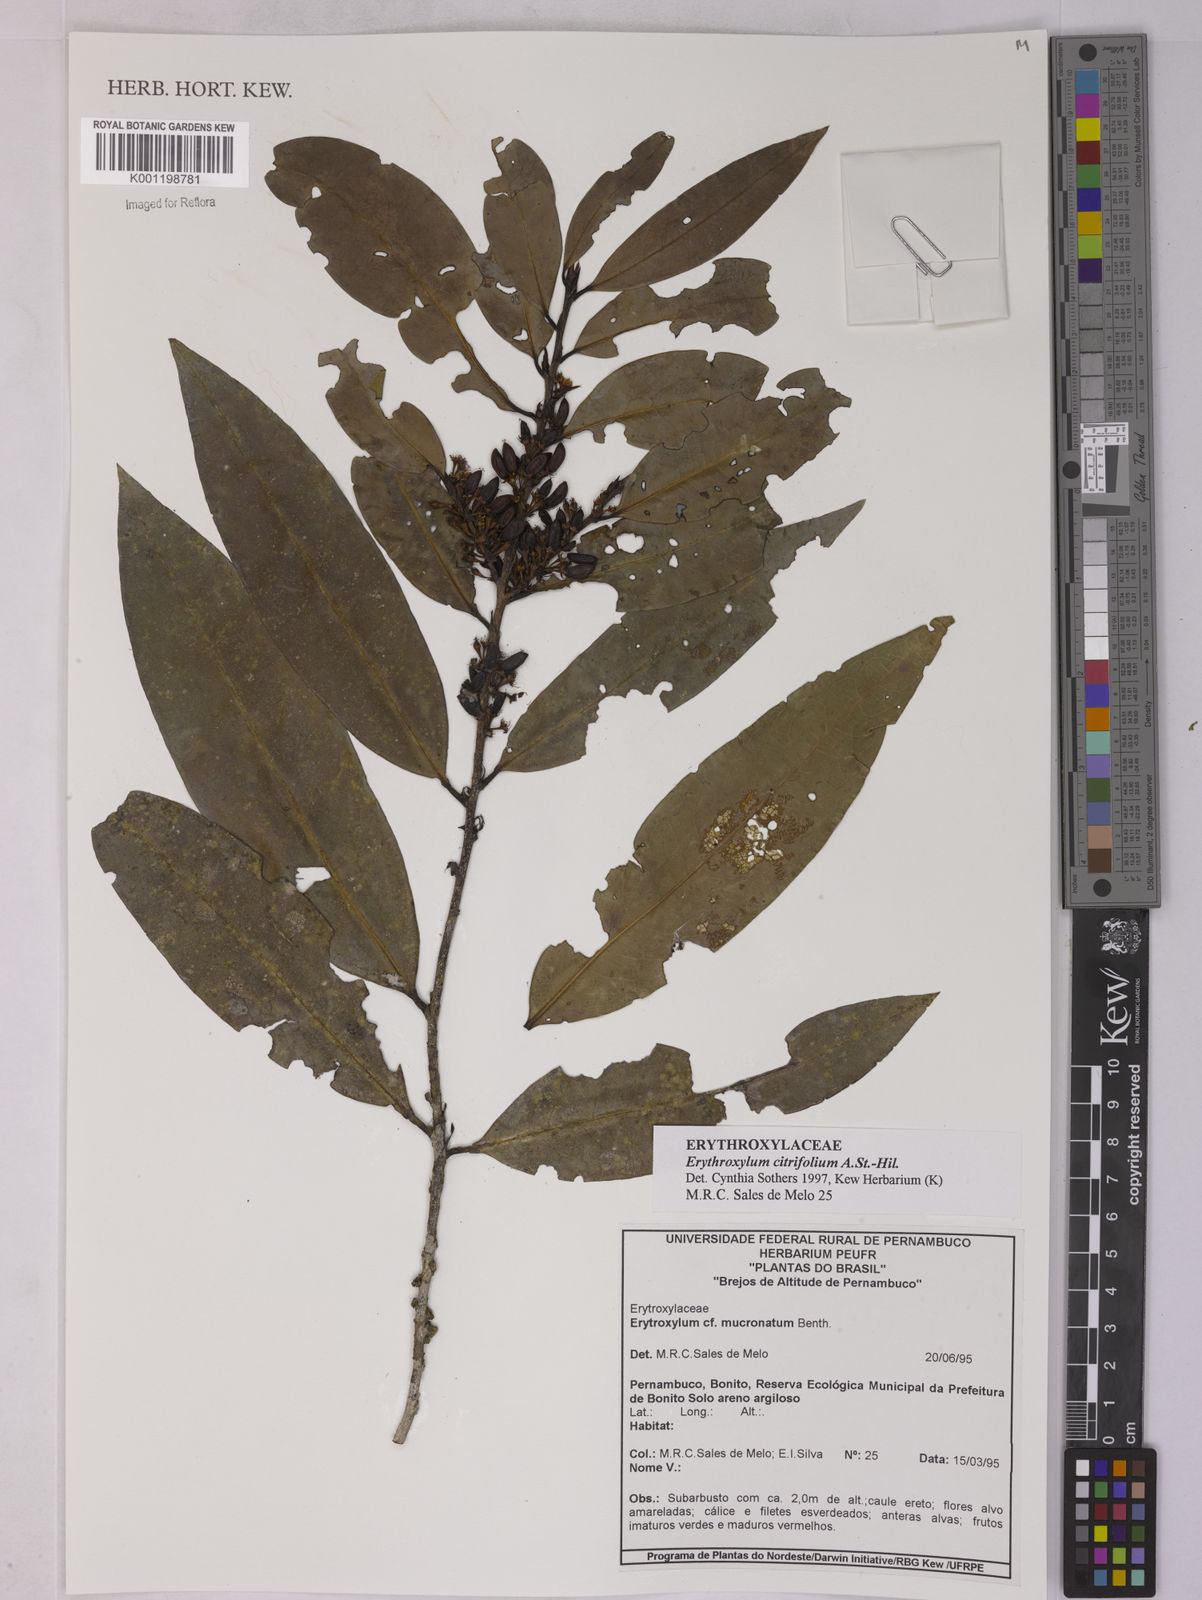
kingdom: Plantae
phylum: Tracheophyta
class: Magnoliopsida
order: Malpighiales
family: Erythroxylaceae
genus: Erythroxylum
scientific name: Erythroxylum citrifolium
